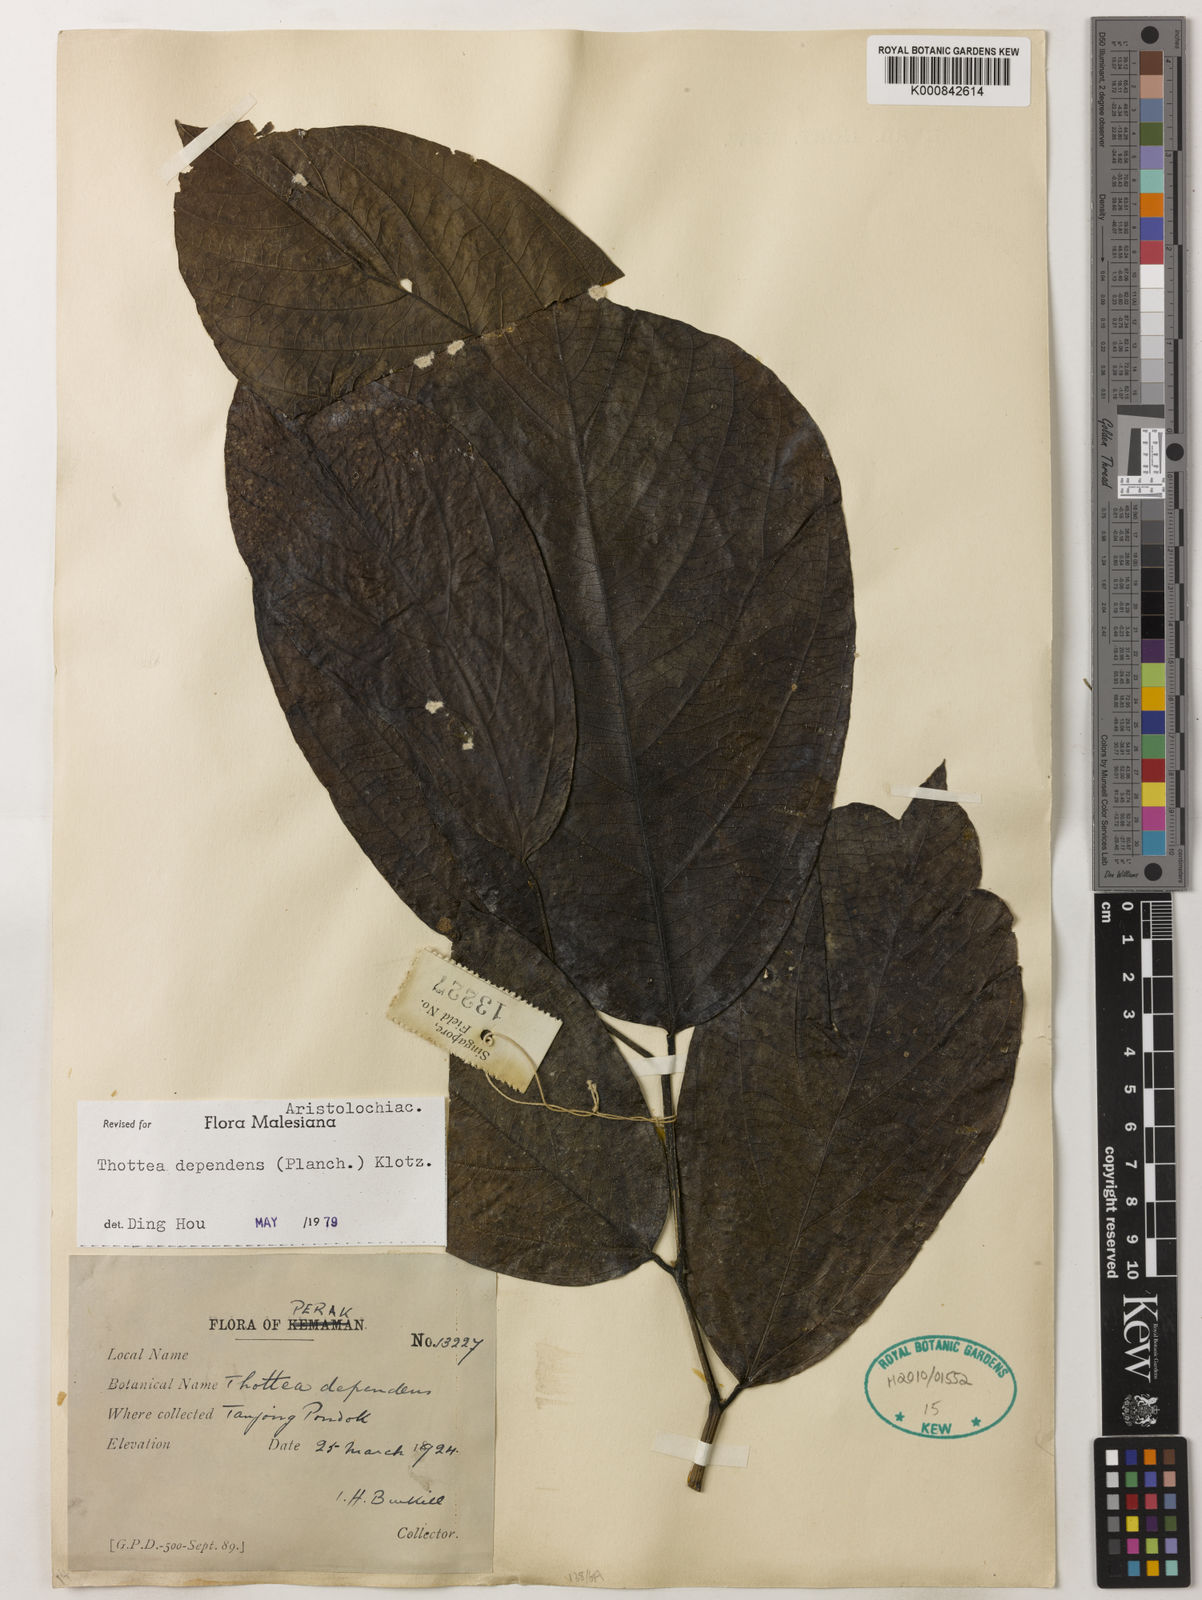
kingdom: Plantae
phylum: Tracheophyta
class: Magnoliopsida
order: Piperales
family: Aristolochiaceae
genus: Thottea
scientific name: Thottea dependens
